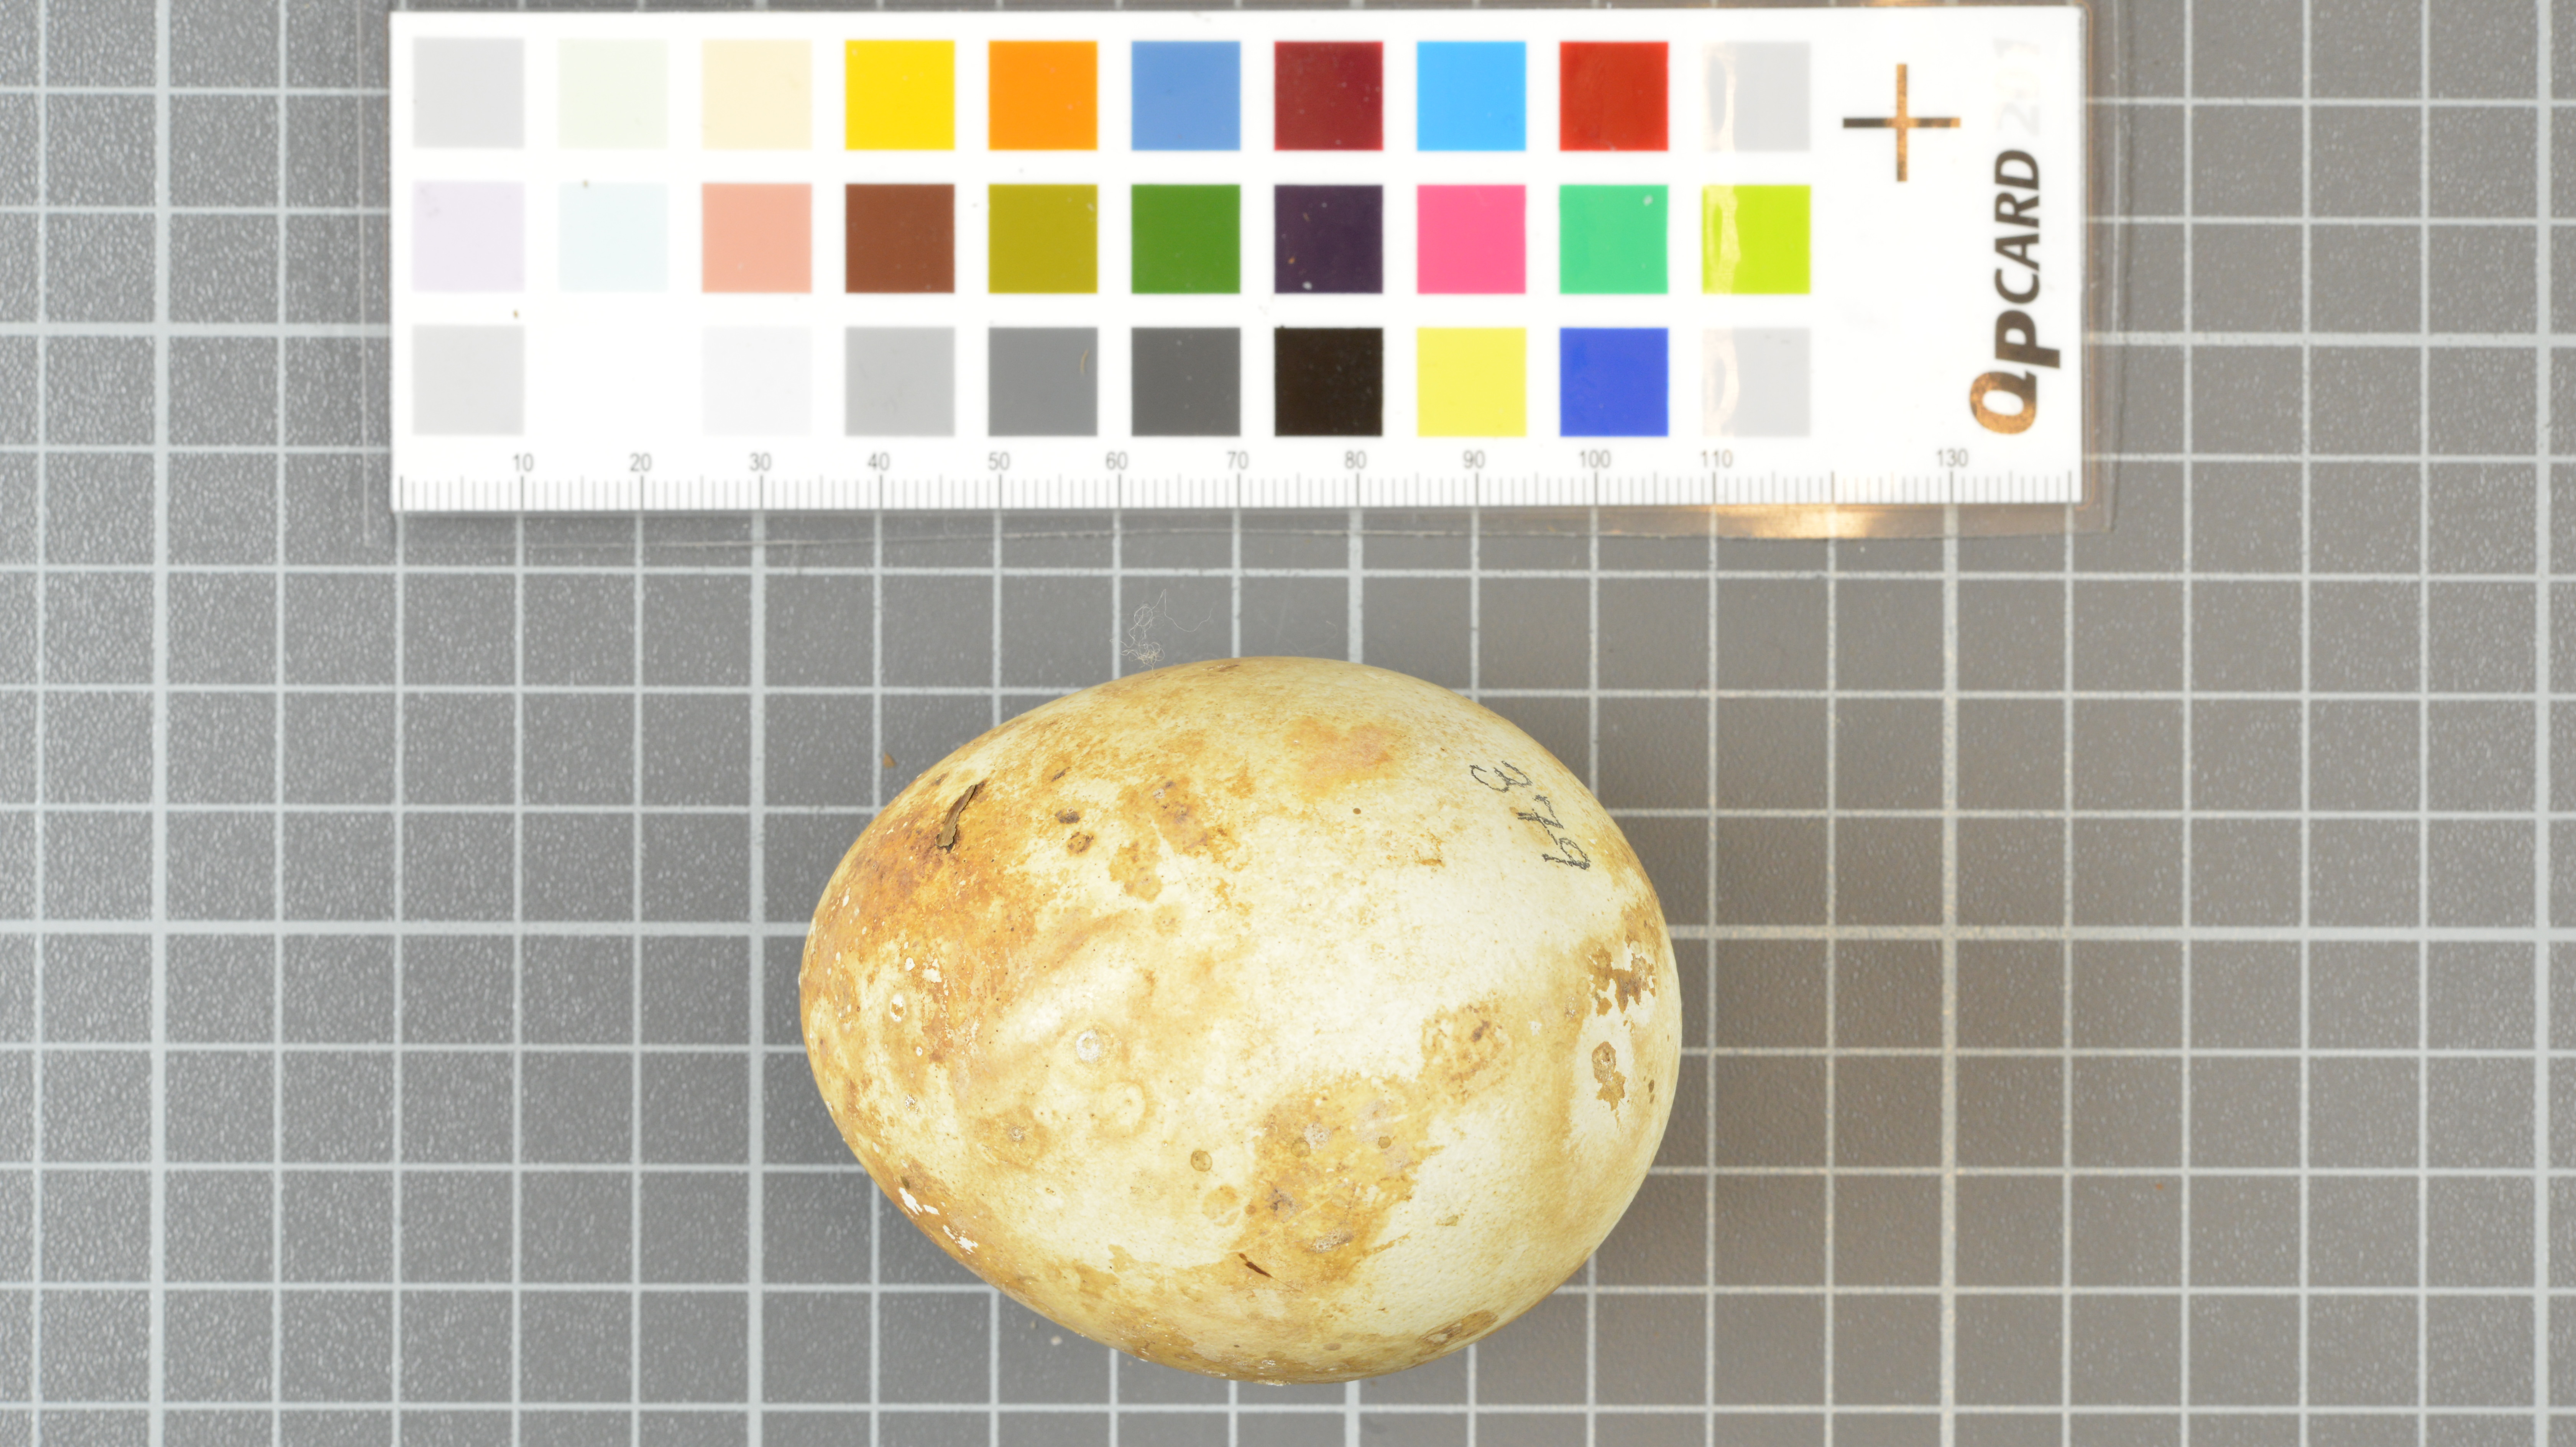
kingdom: Animalia
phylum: Chordata
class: Aves
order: Sphenisciformes
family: Spheniscidae
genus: Eudyptes
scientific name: Eudyptes moseleyi
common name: Northern rockhopper penguin
